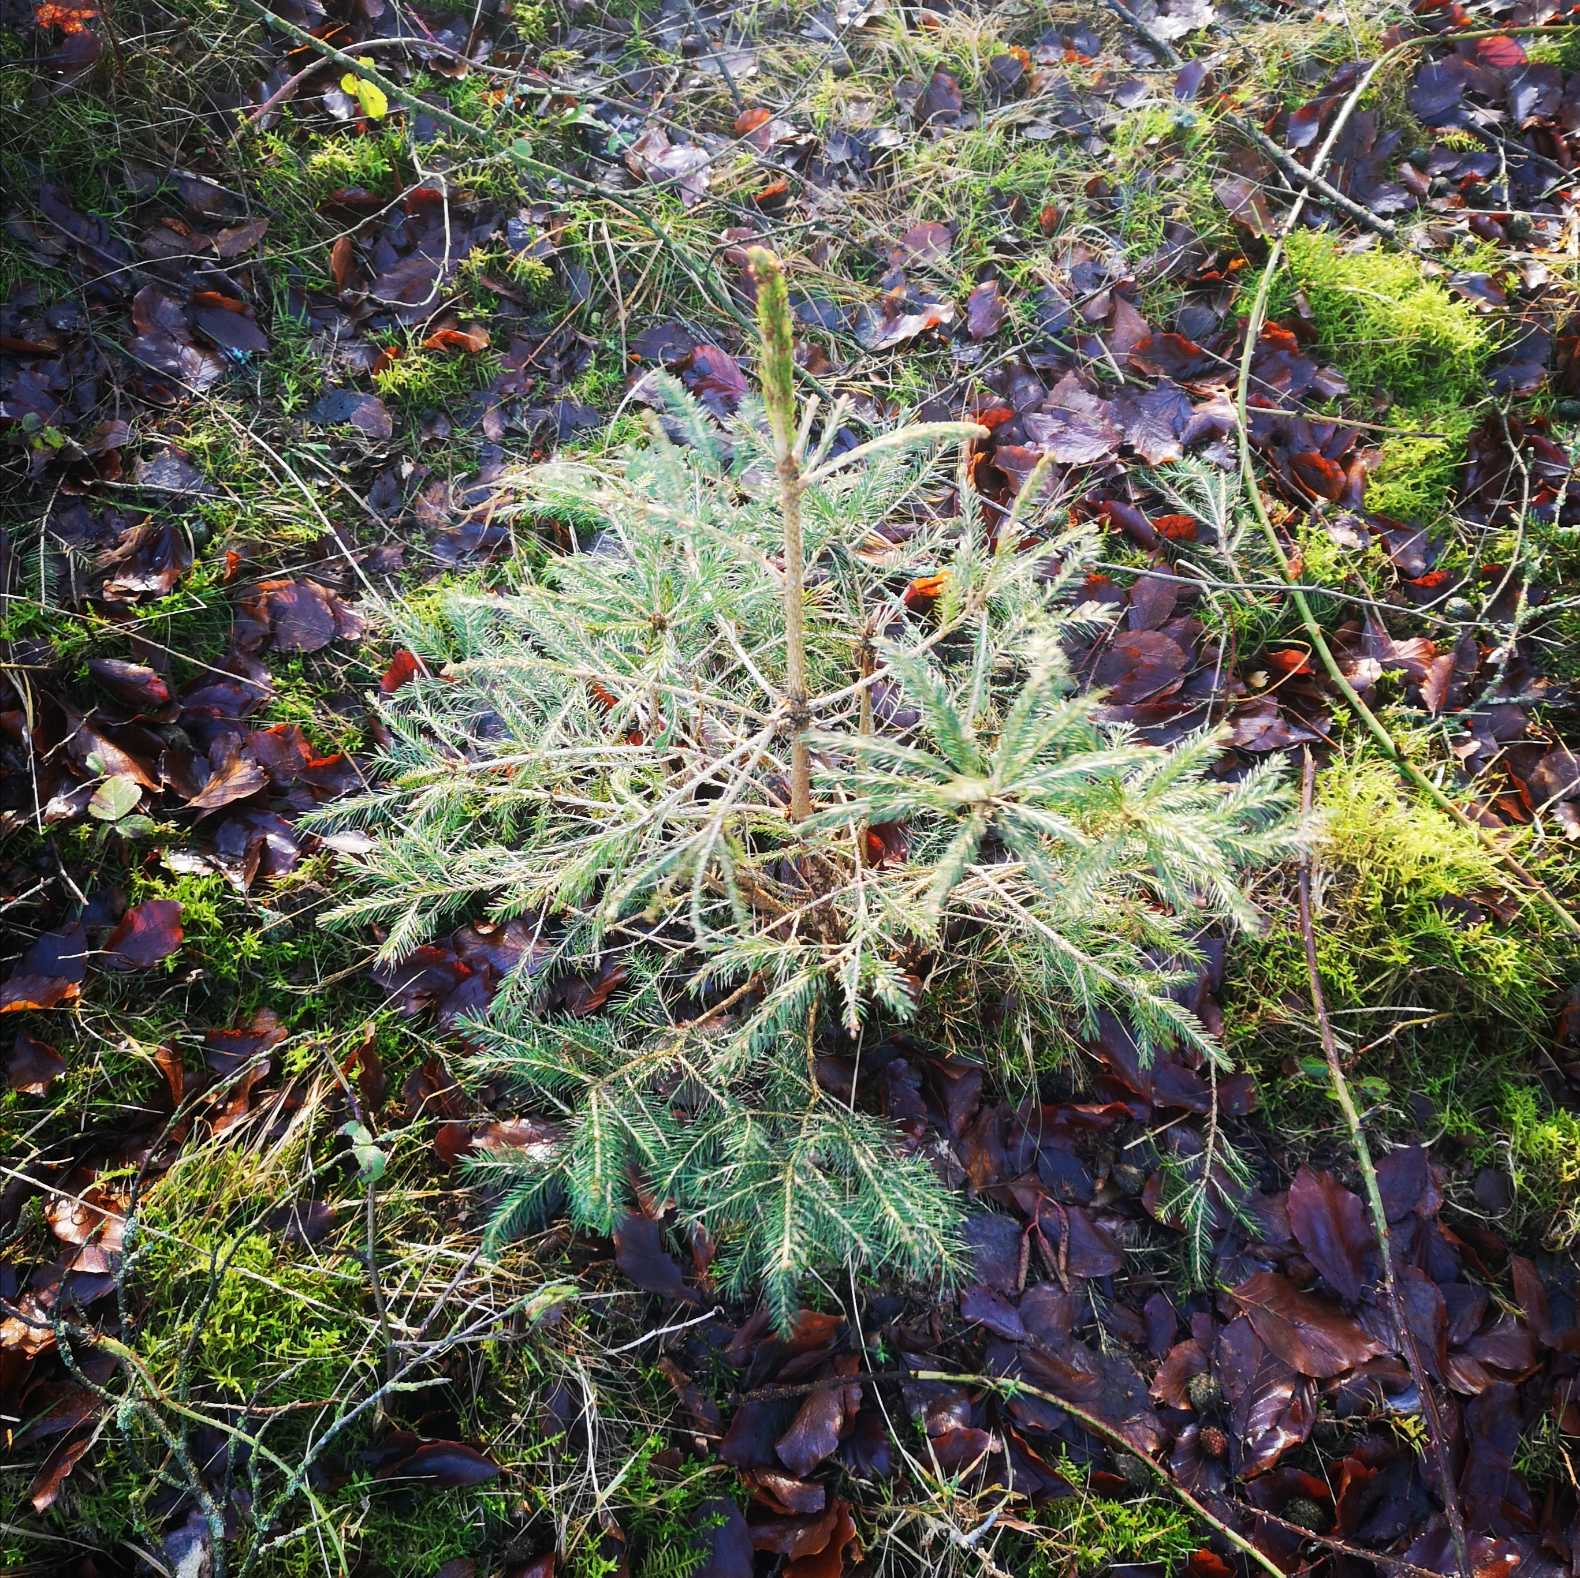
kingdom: Plantae
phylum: Tracheophyta
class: Pinopsida
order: Pinales
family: Pinaceae
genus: Picea
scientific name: Picea abies
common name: Rød-gran
